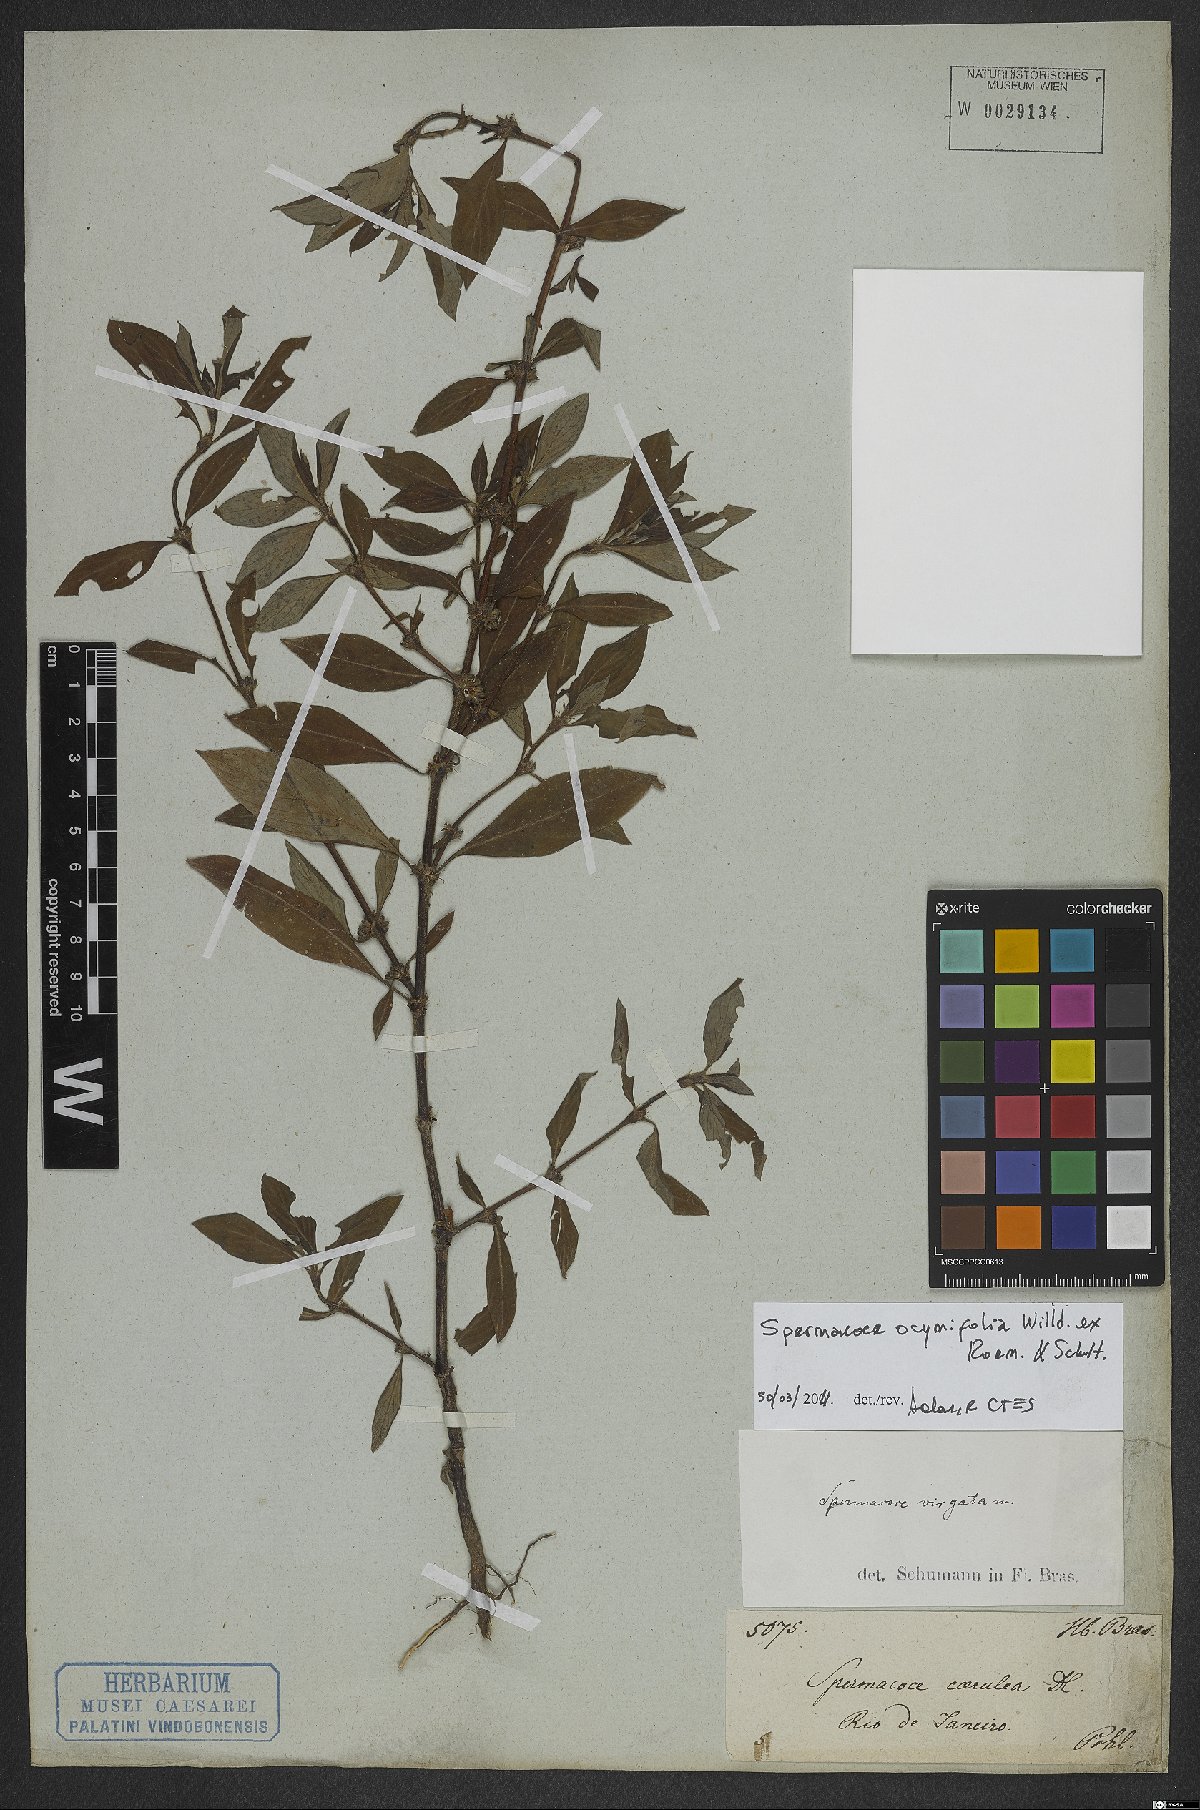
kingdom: Plantae
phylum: Tracheophyta
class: Magnoliopsida
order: Gentianales
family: Rubiaceae
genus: Spermacoce
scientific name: Spermacoce ocymifolia
